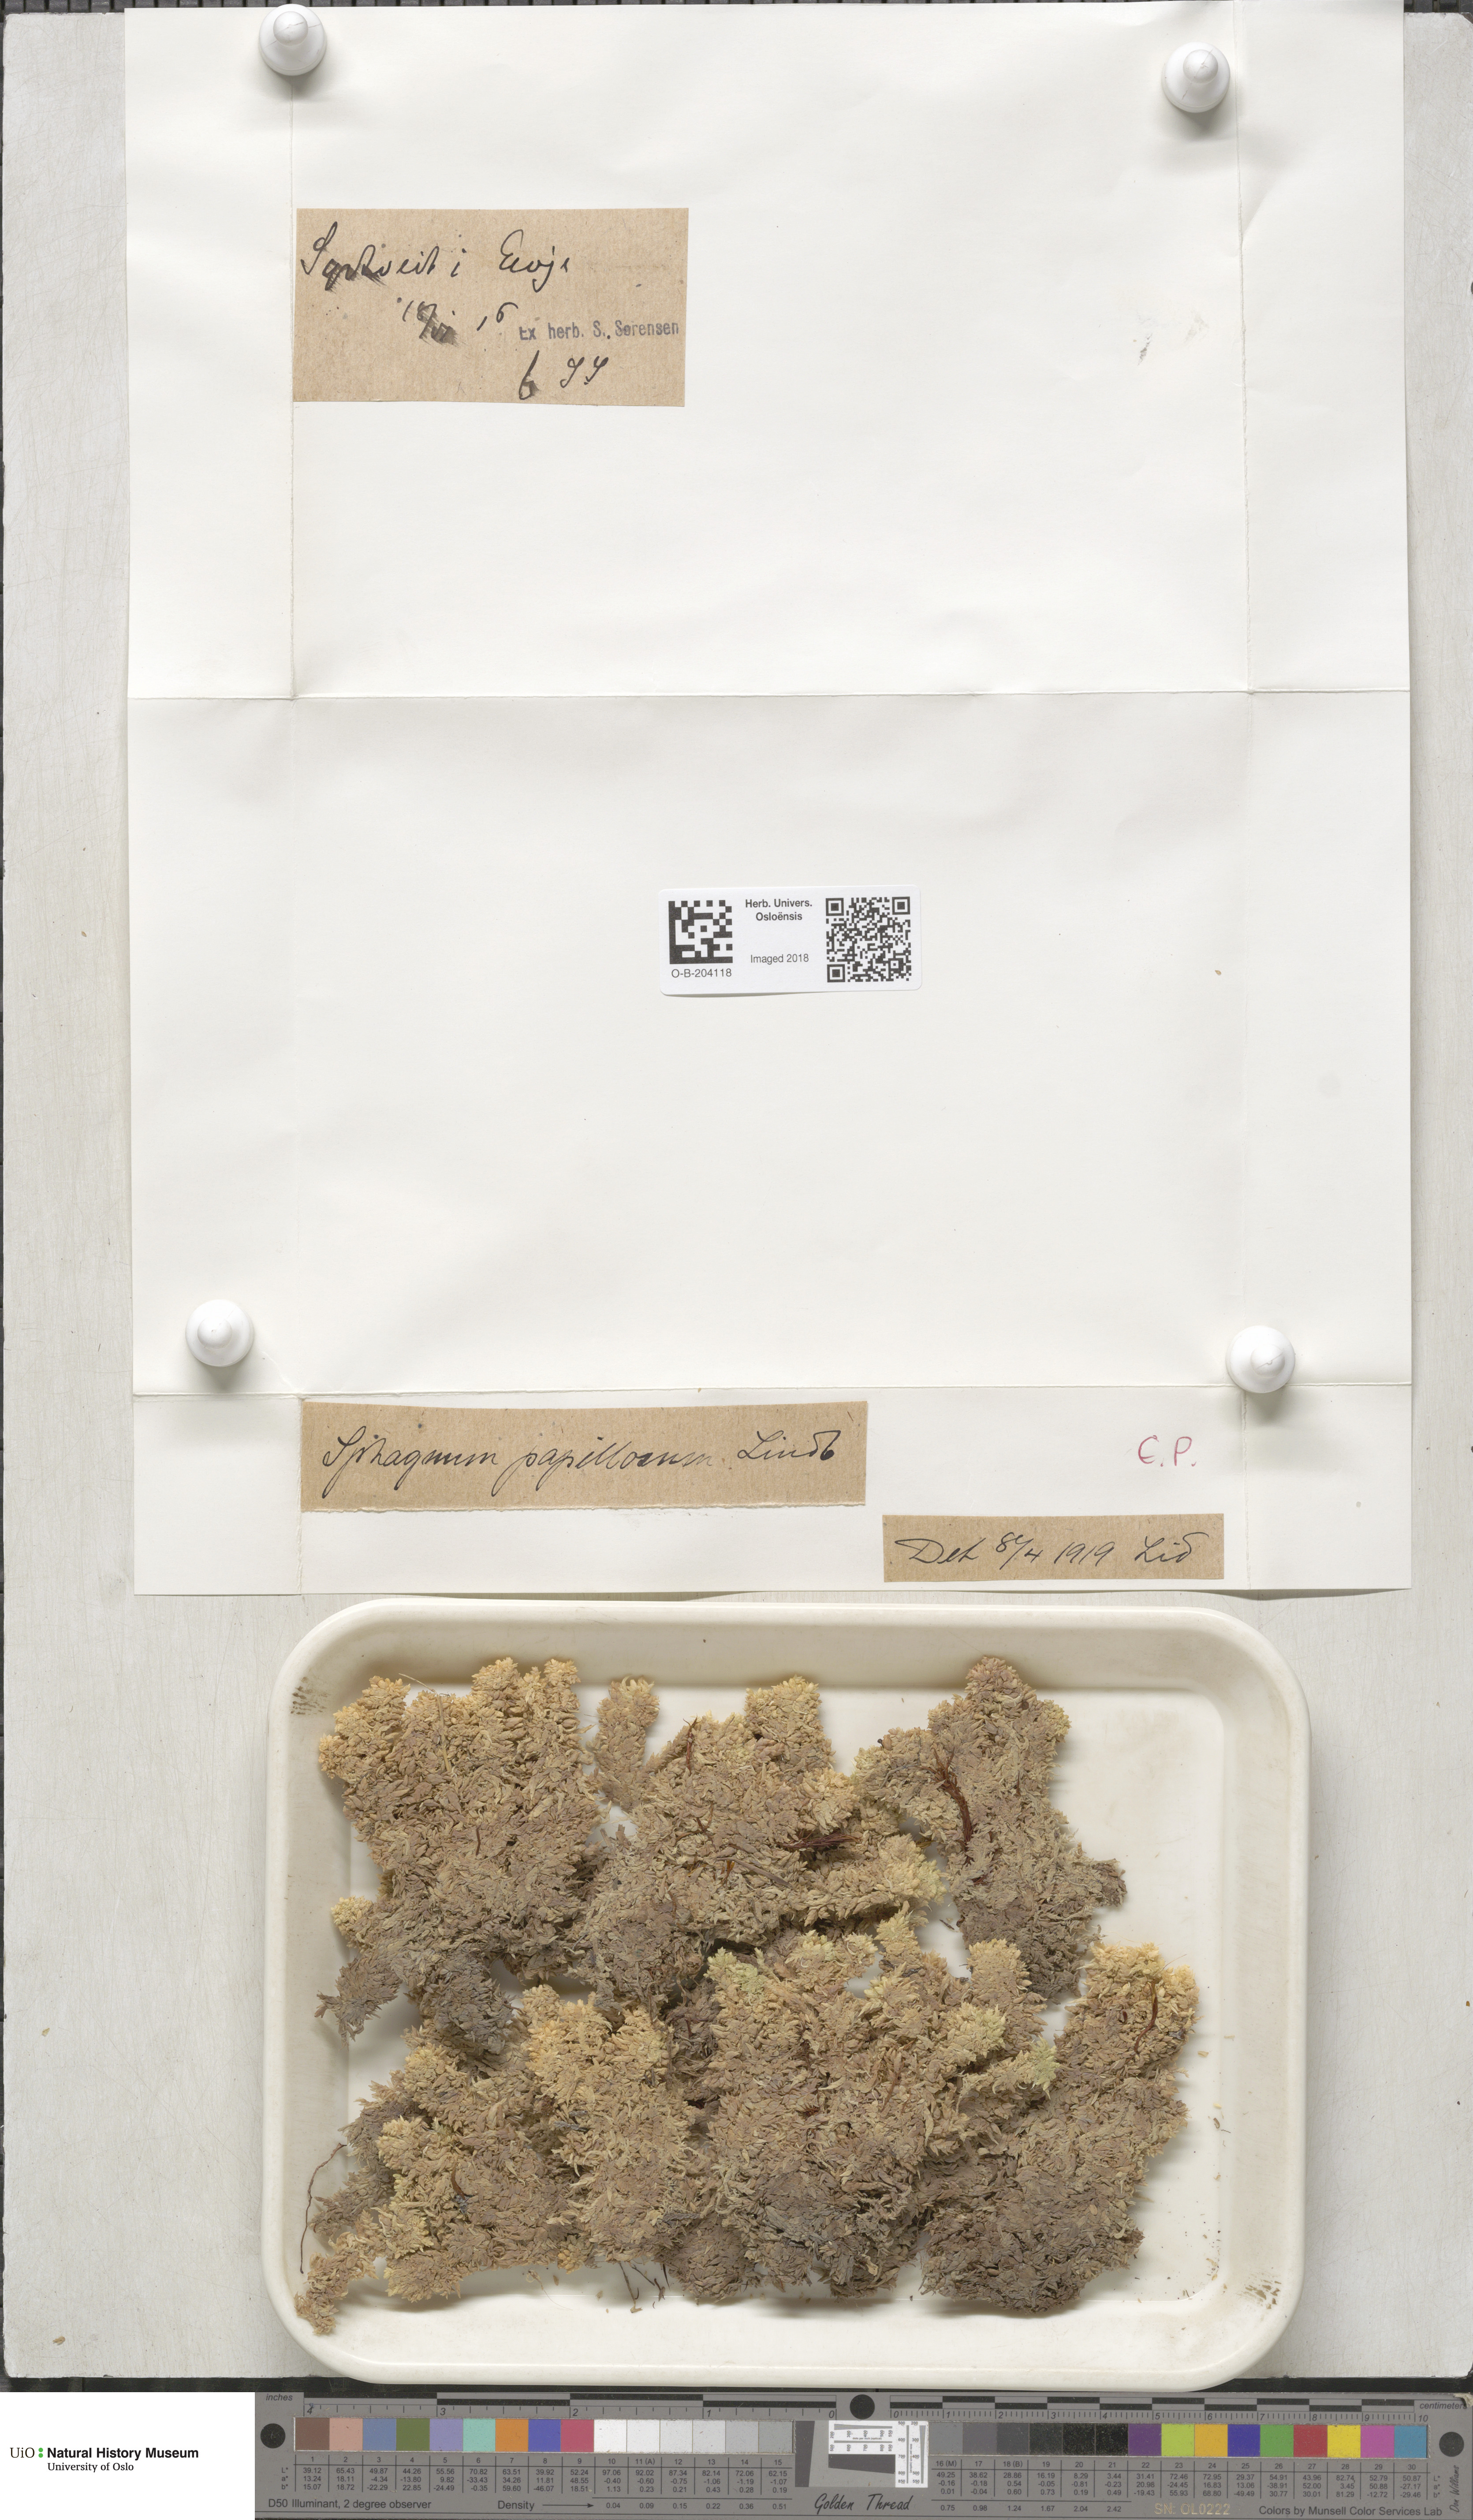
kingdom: Plantae
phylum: Bryophyta
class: Sphagnopsida
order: Sphagnales
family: Sphagnaceae
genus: Sphagnum
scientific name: Sphagnum papillosum
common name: Papillose peat moss
